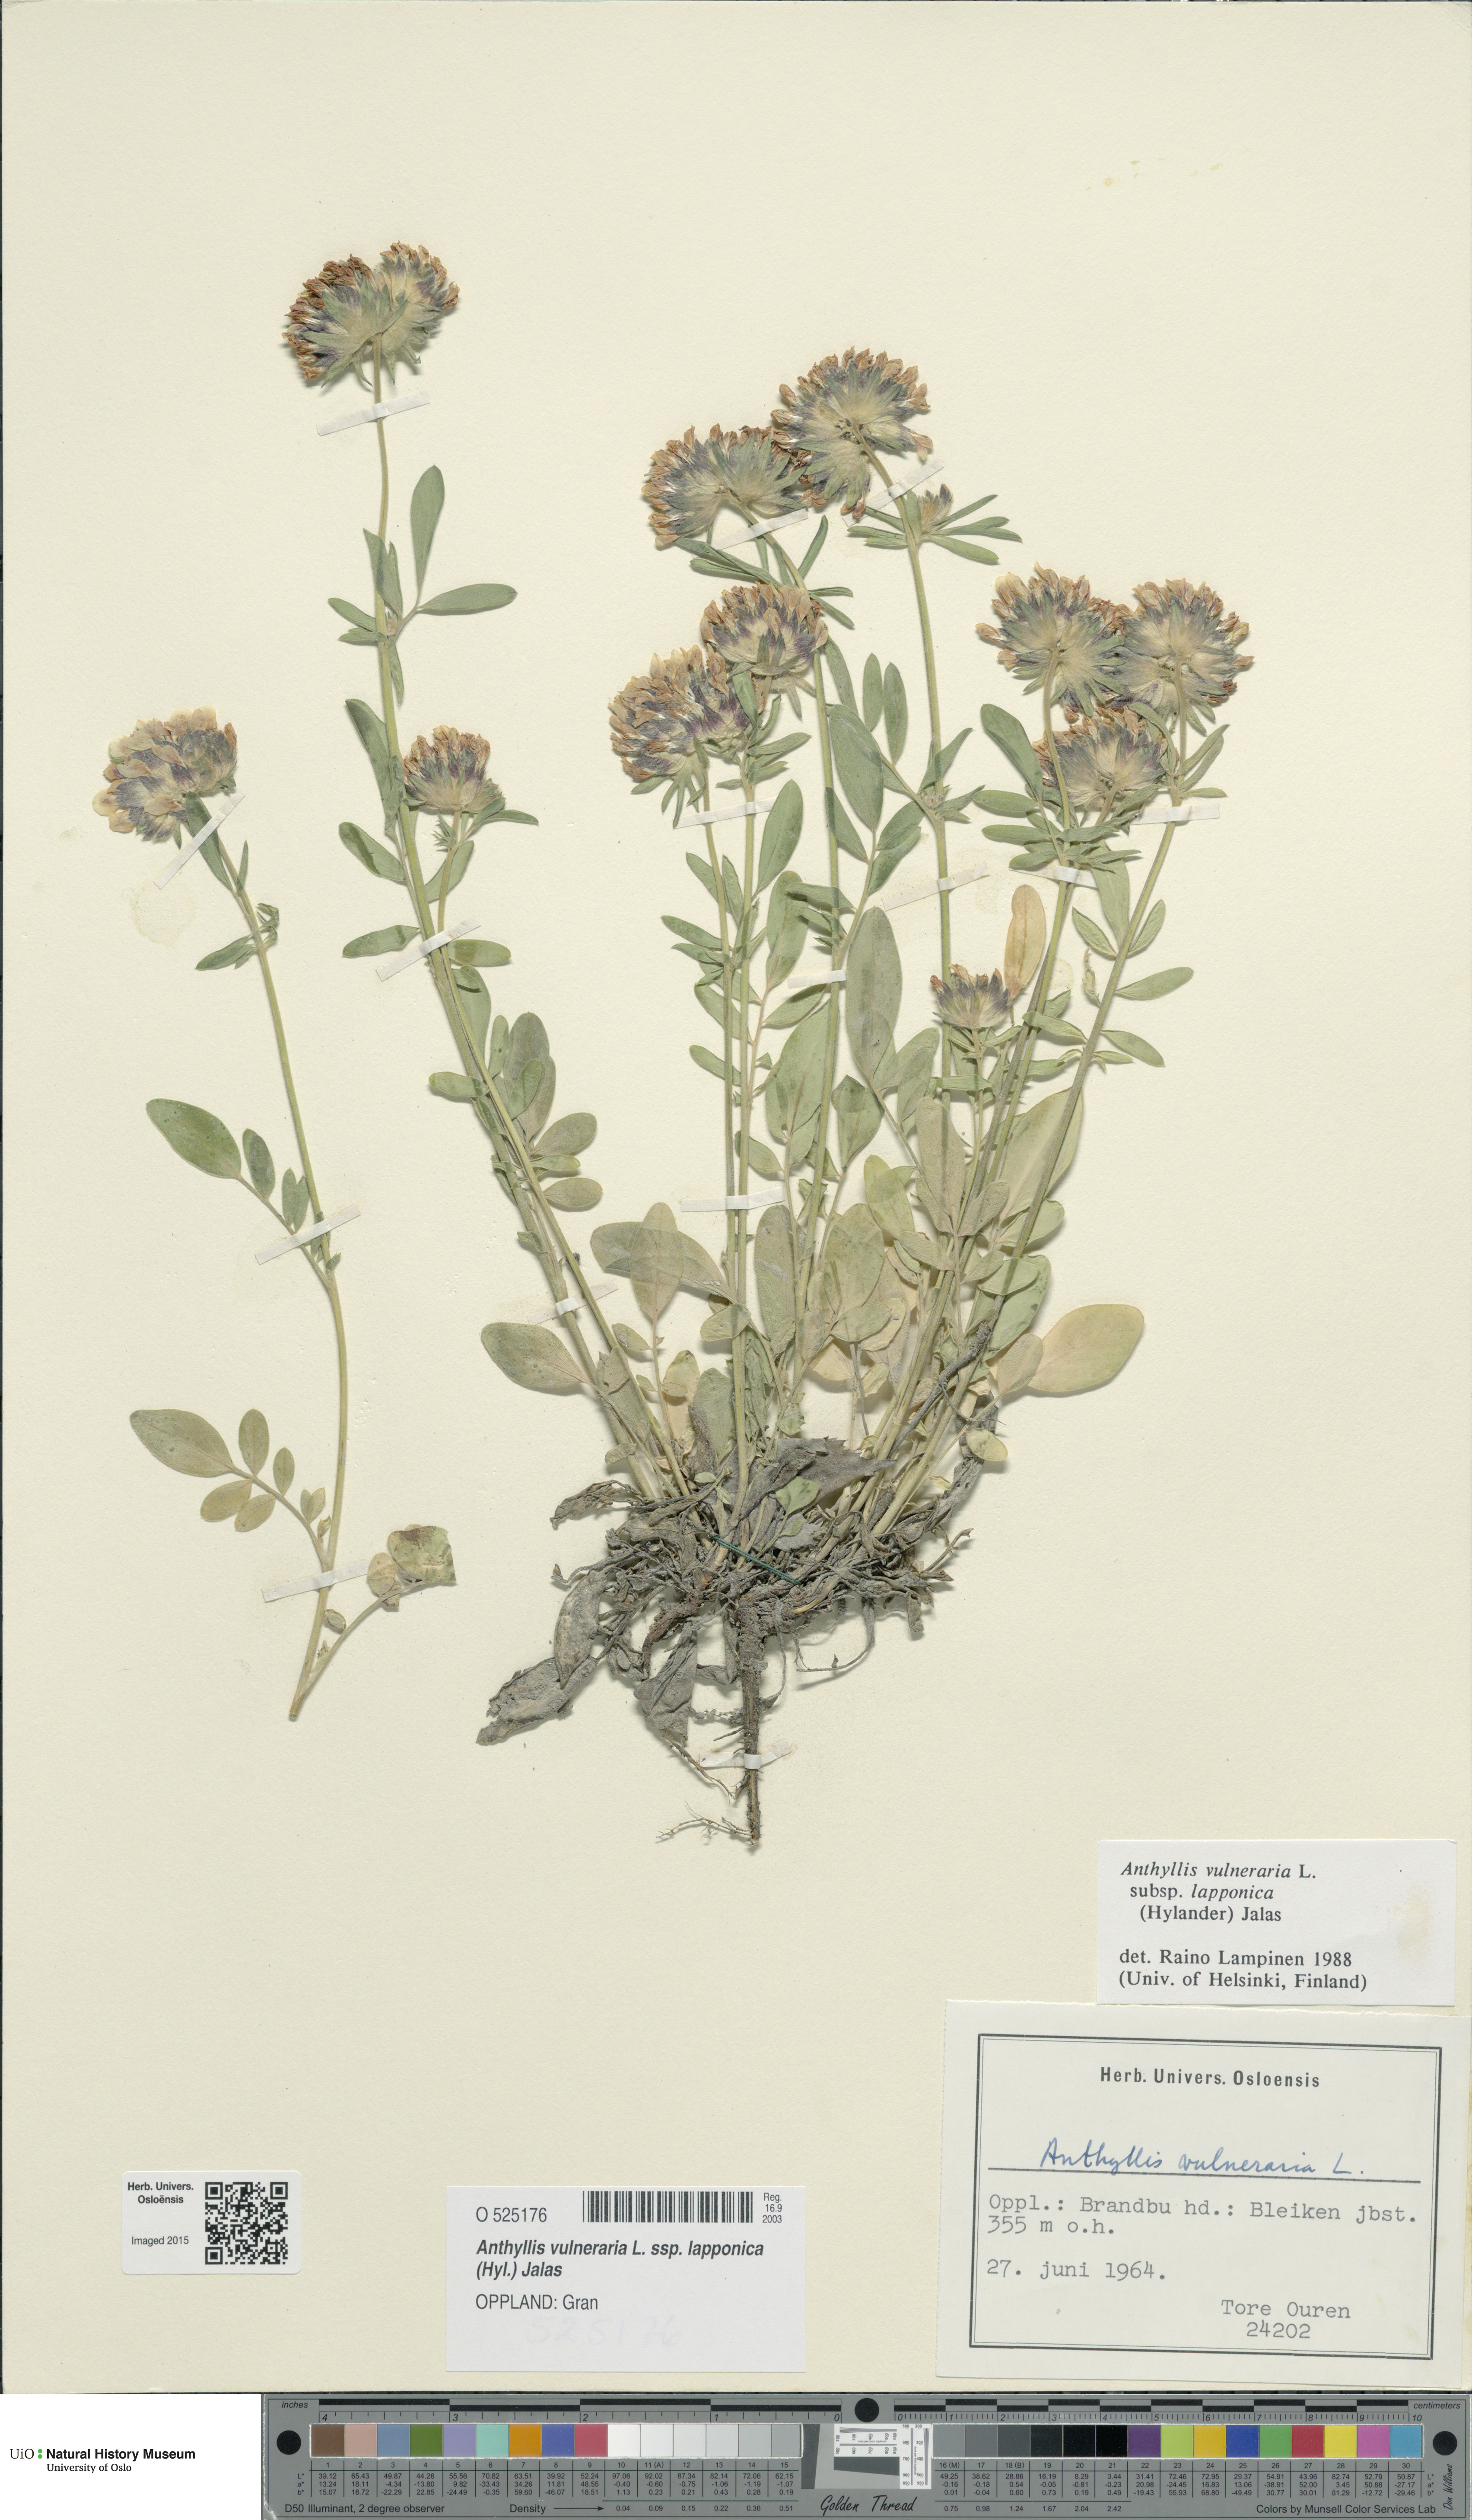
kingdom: Plantae
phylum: Tracheophyta
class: Magnoliopsida
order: Fabales
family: Fabaceae
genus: Anthyllis
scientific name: Anthyllis vulneraria
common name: Kidney vetch
